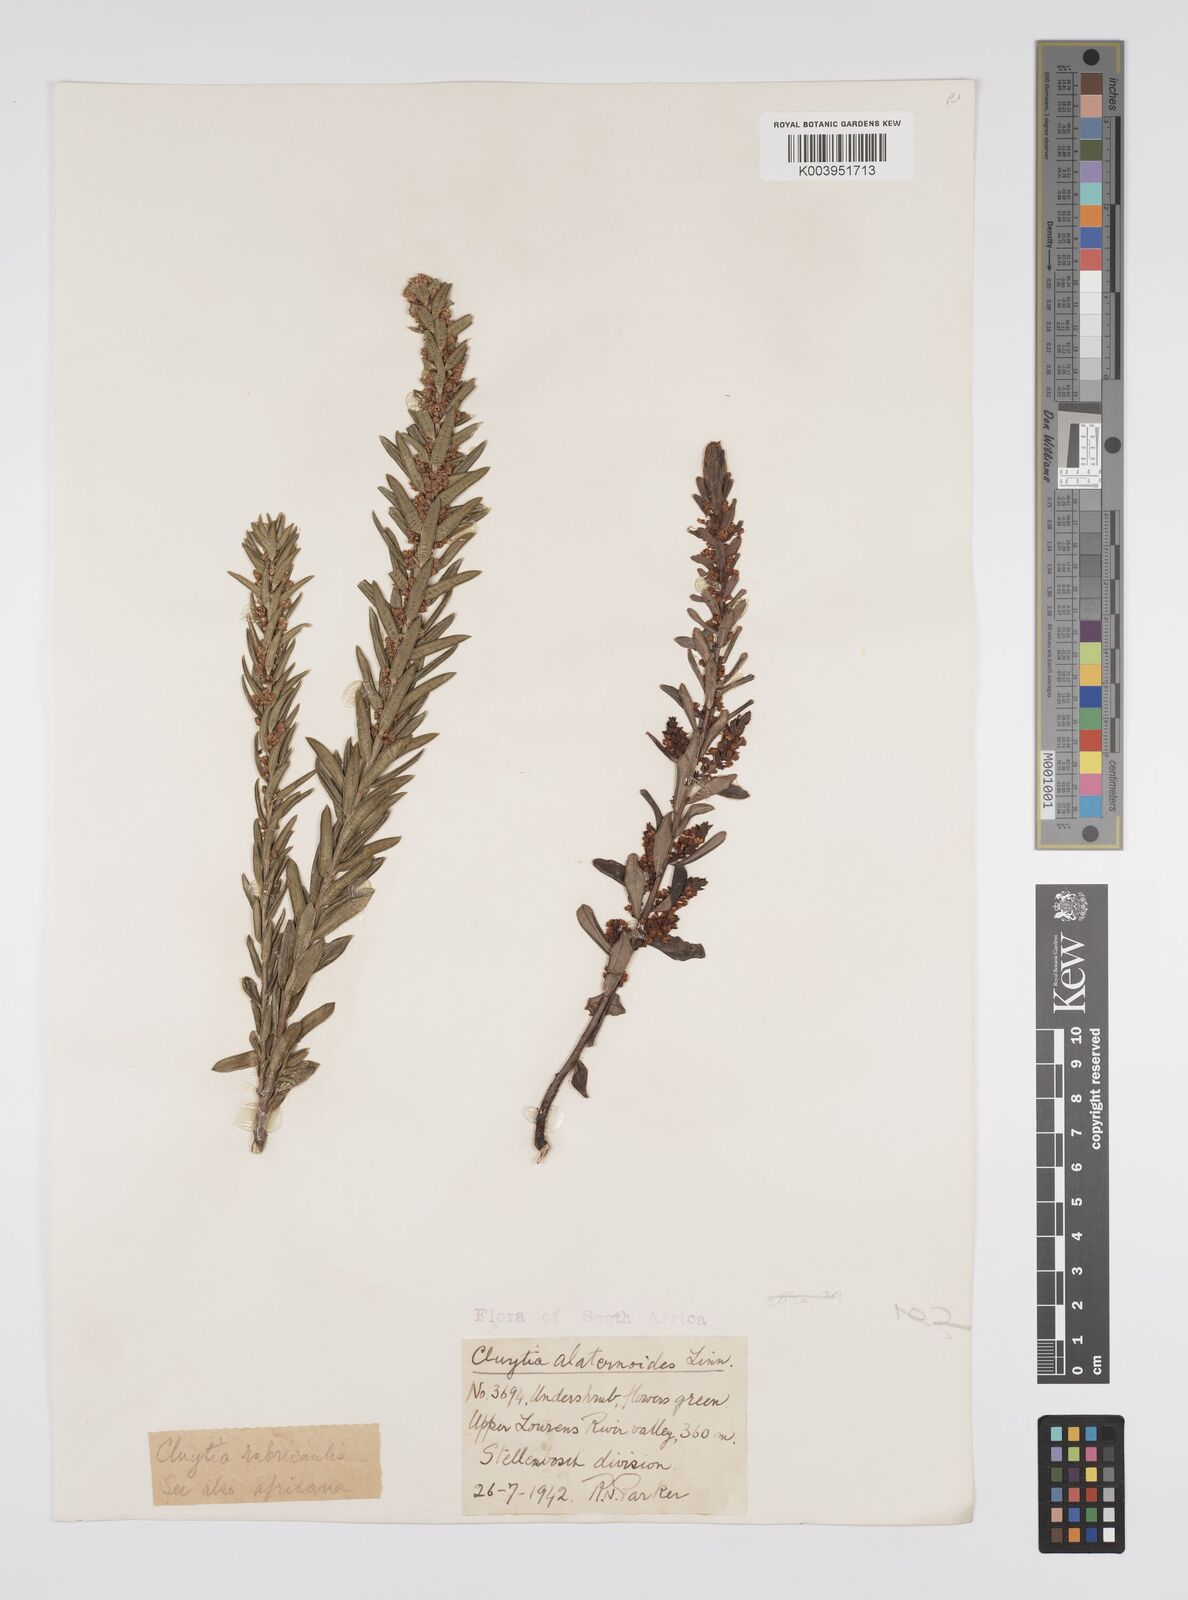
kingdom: Plantae
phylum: Tracheophyta
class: Magnoliopsida
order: Malpighiales
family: Peraceae
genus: Clutia
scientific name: Clutia alaternoides
